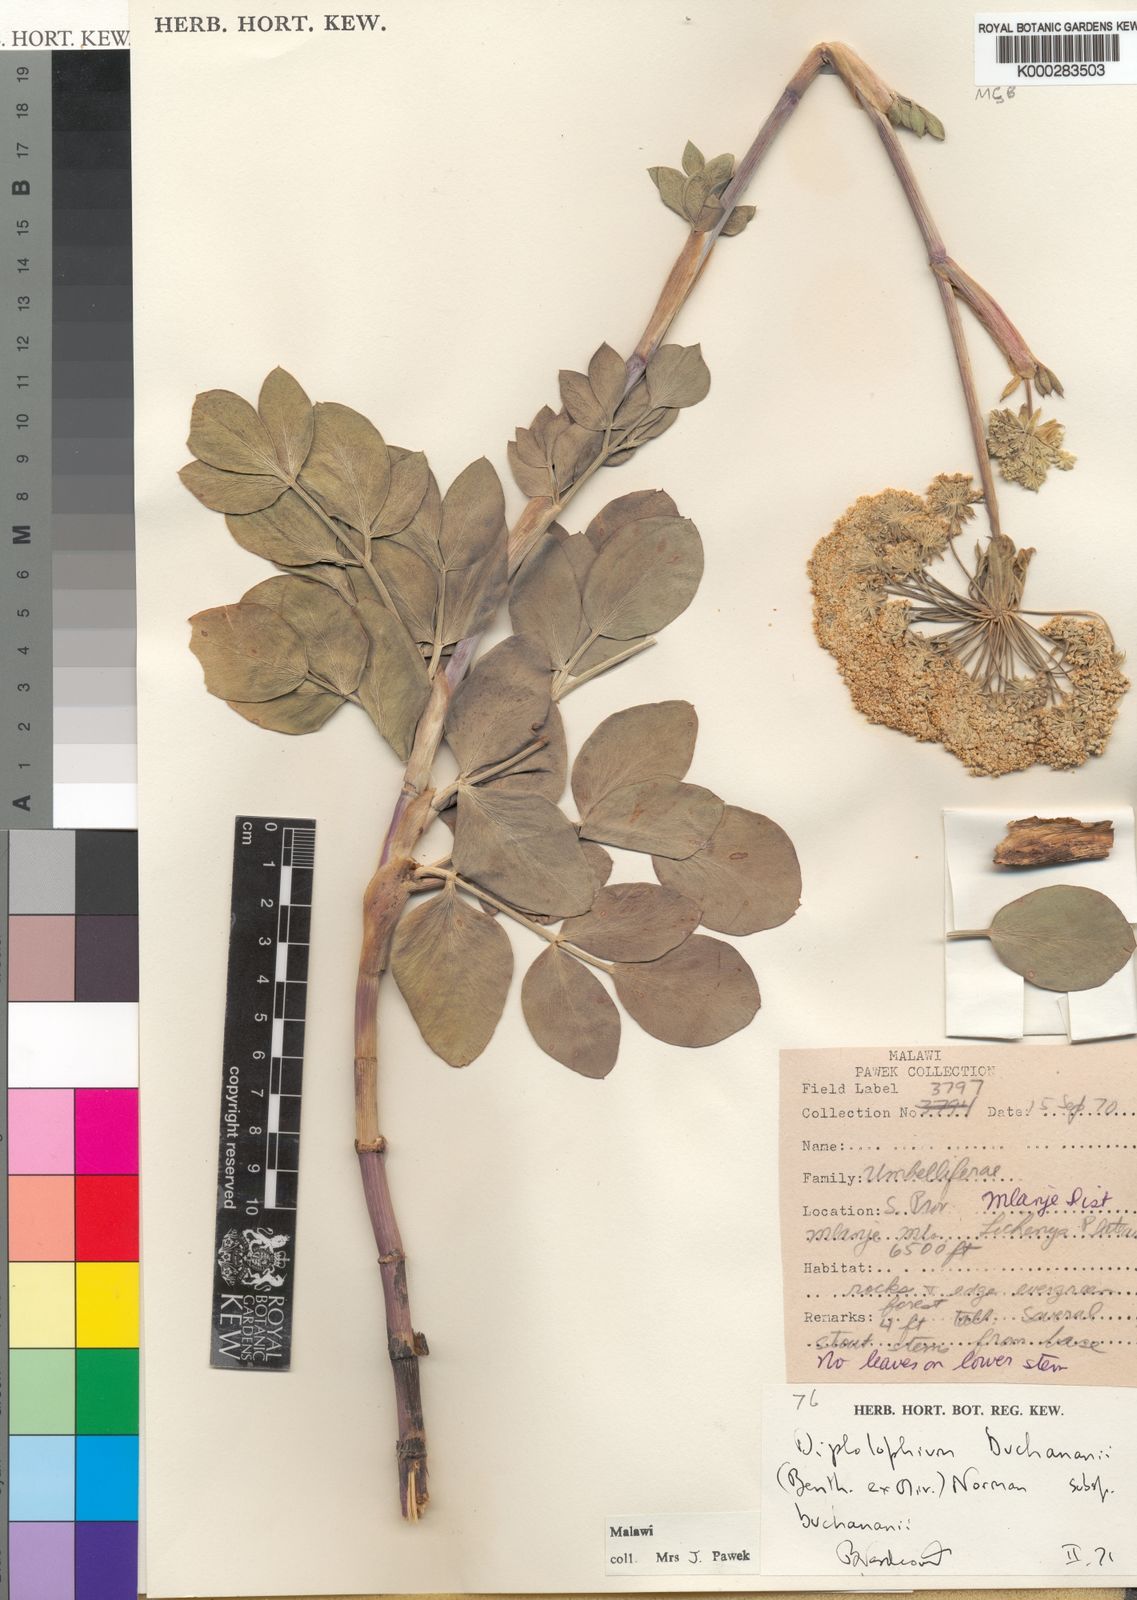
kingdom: Plantae
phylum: Tracheophyta
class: Magnoliopsida
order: Apiales
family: Apiaceae
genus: Diplolophium
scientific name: Diplolophium buchananii
